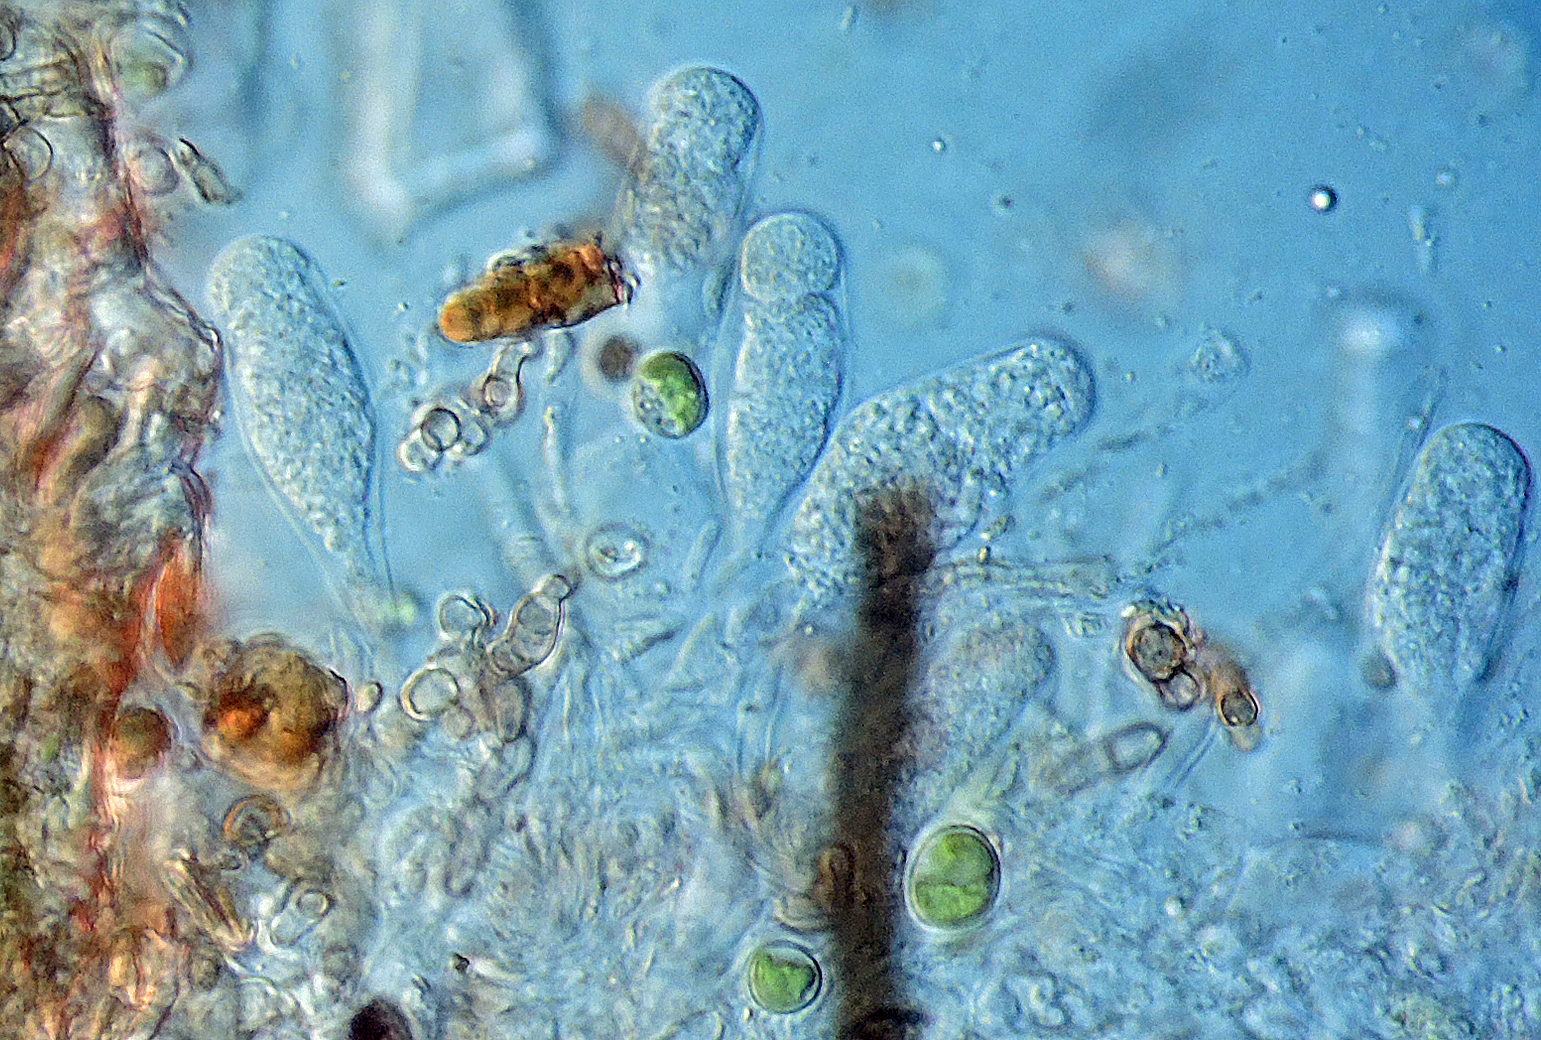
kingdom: Fungi
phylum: Ascomycota
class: Sordariomycetes
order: Coronophorales
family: Coronophoraceae
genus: Coronophora
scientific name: Coronophora
